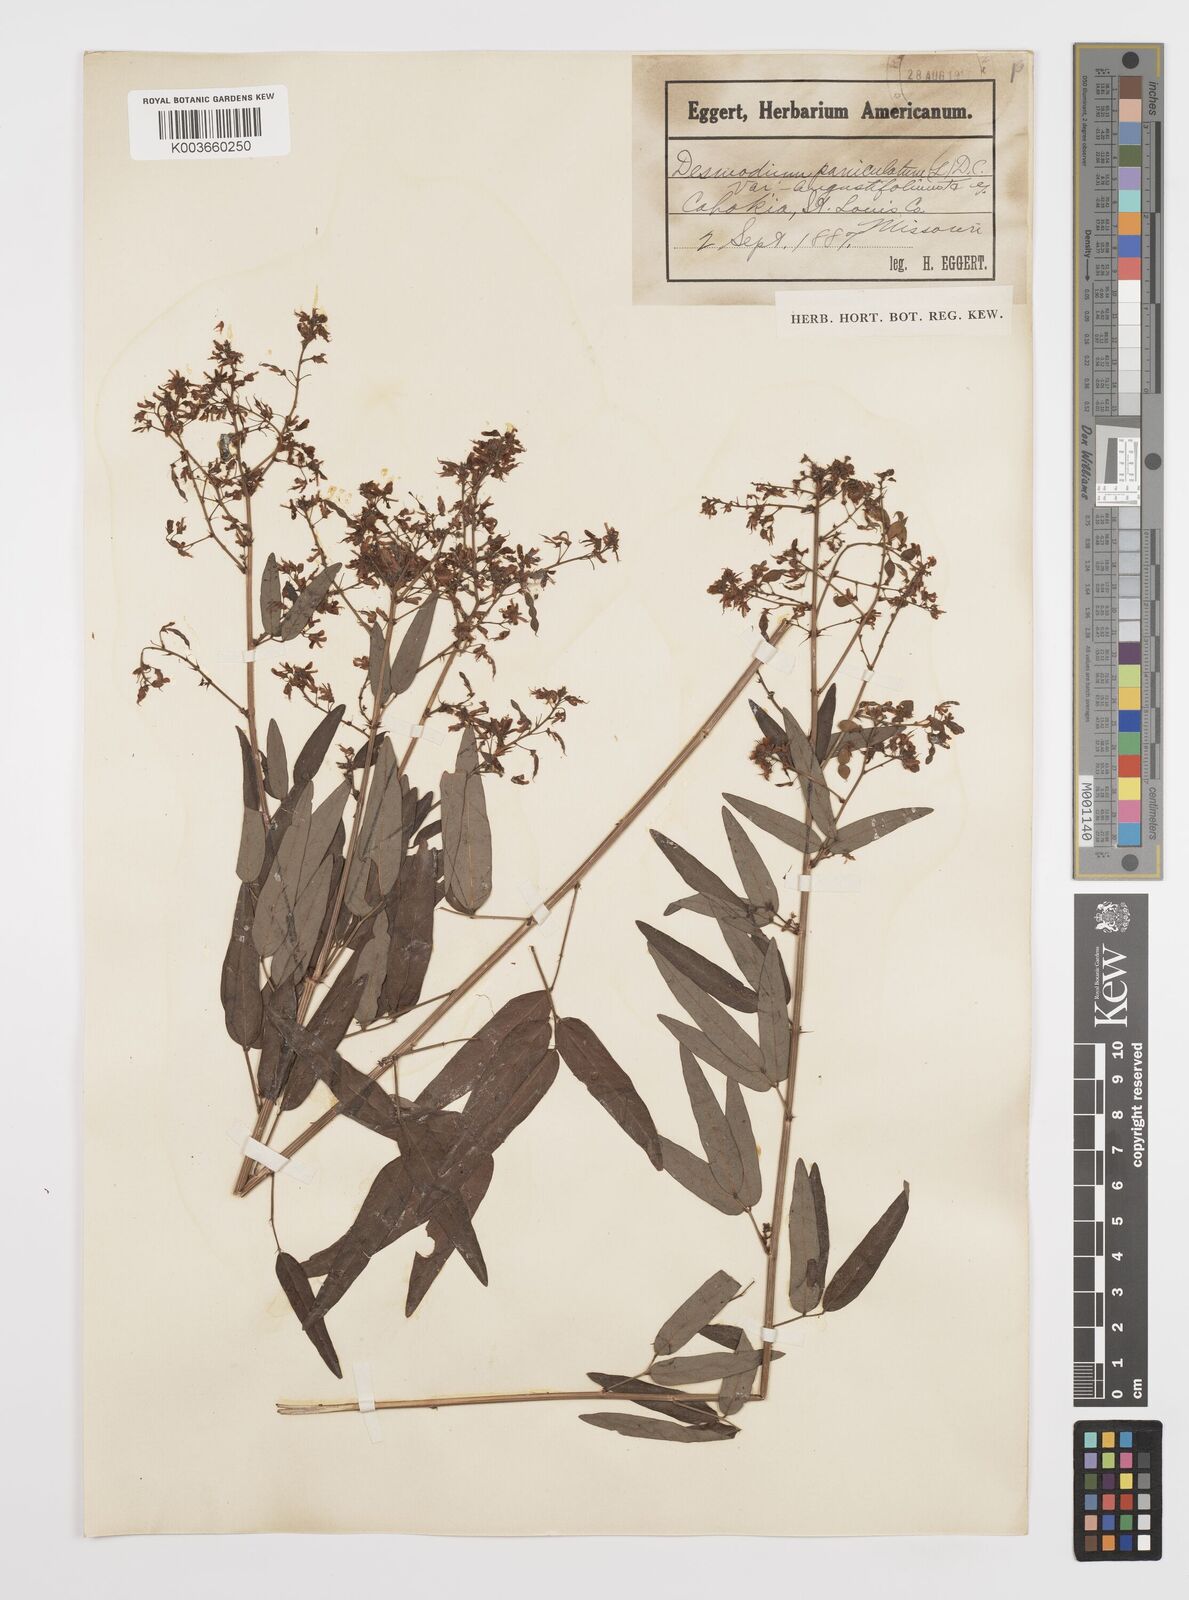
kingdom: Plantae
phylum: Tracheophyta
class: Magnoliopsida
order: Fabales
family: Fabaceae
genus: Desmodium
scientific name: Desmodium paniculatum
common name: Panicled tick-clover
